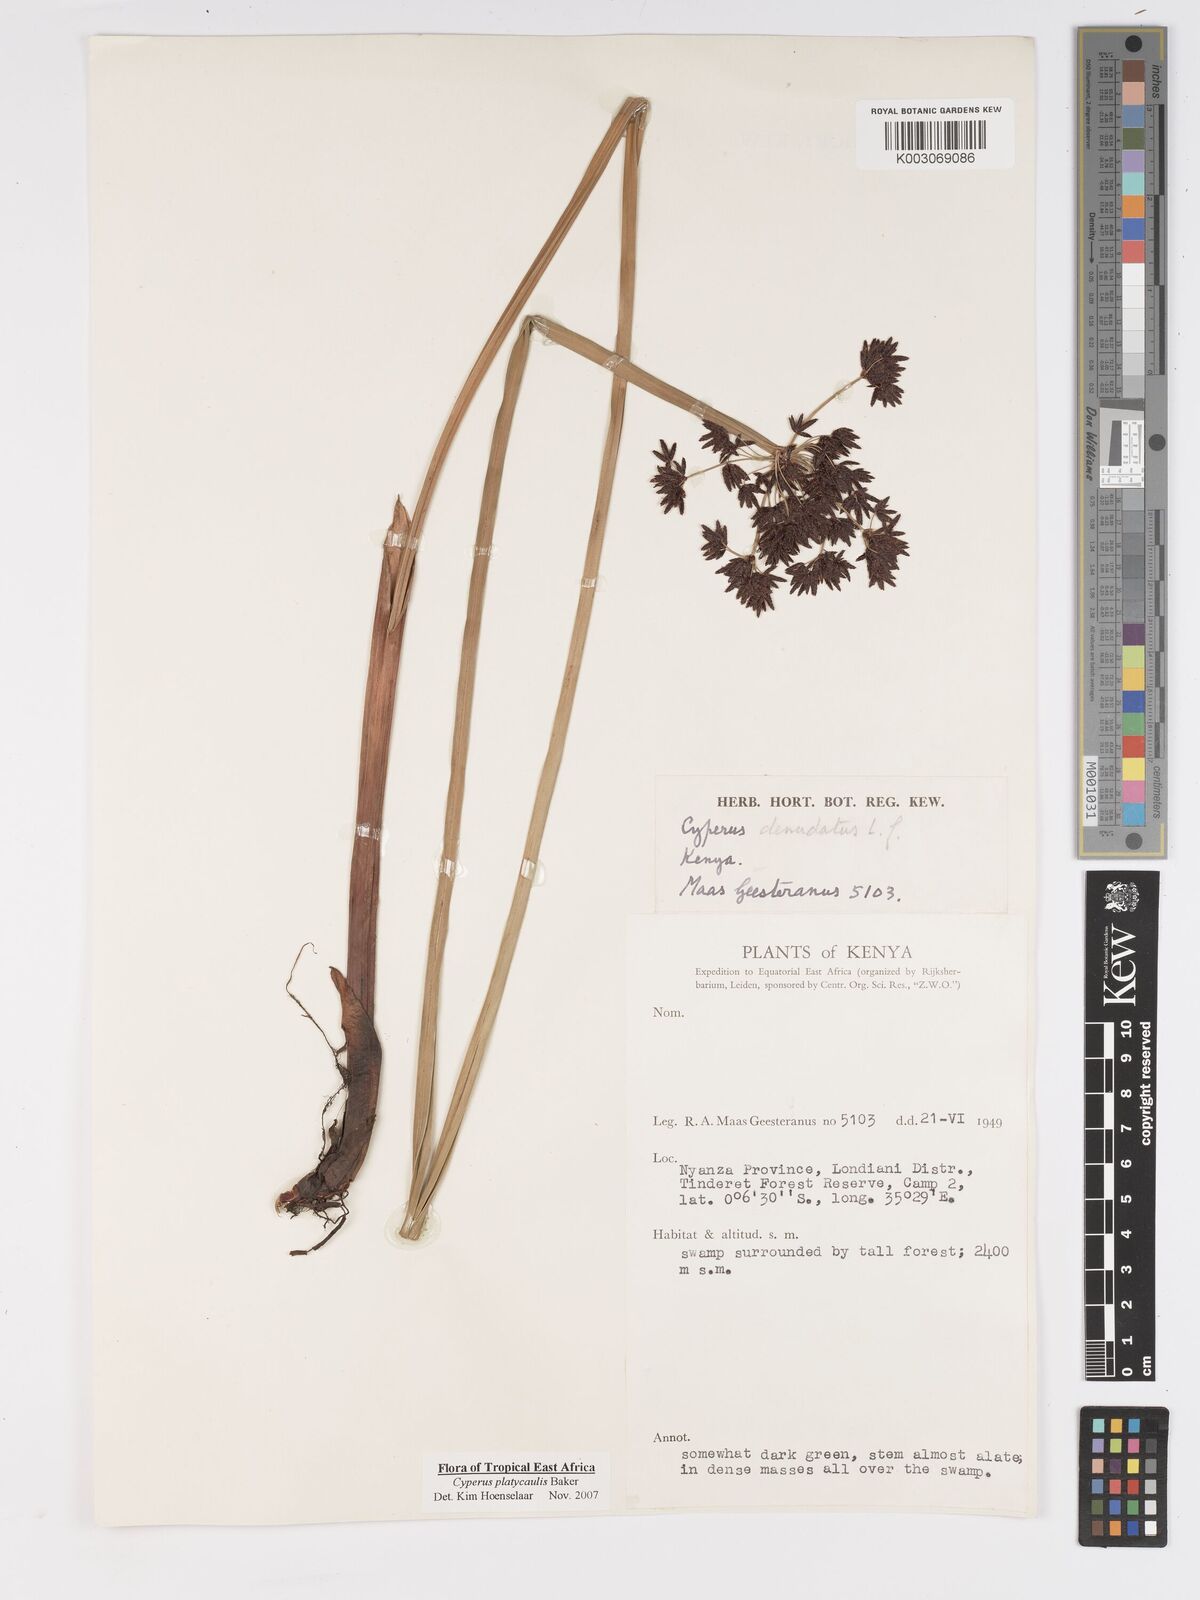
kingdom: Plantae
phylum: Tracheophyta
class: Liliopsida
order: Poales
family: Cyperaceae
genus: Cyperus
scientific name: Cyperus platycaulis
